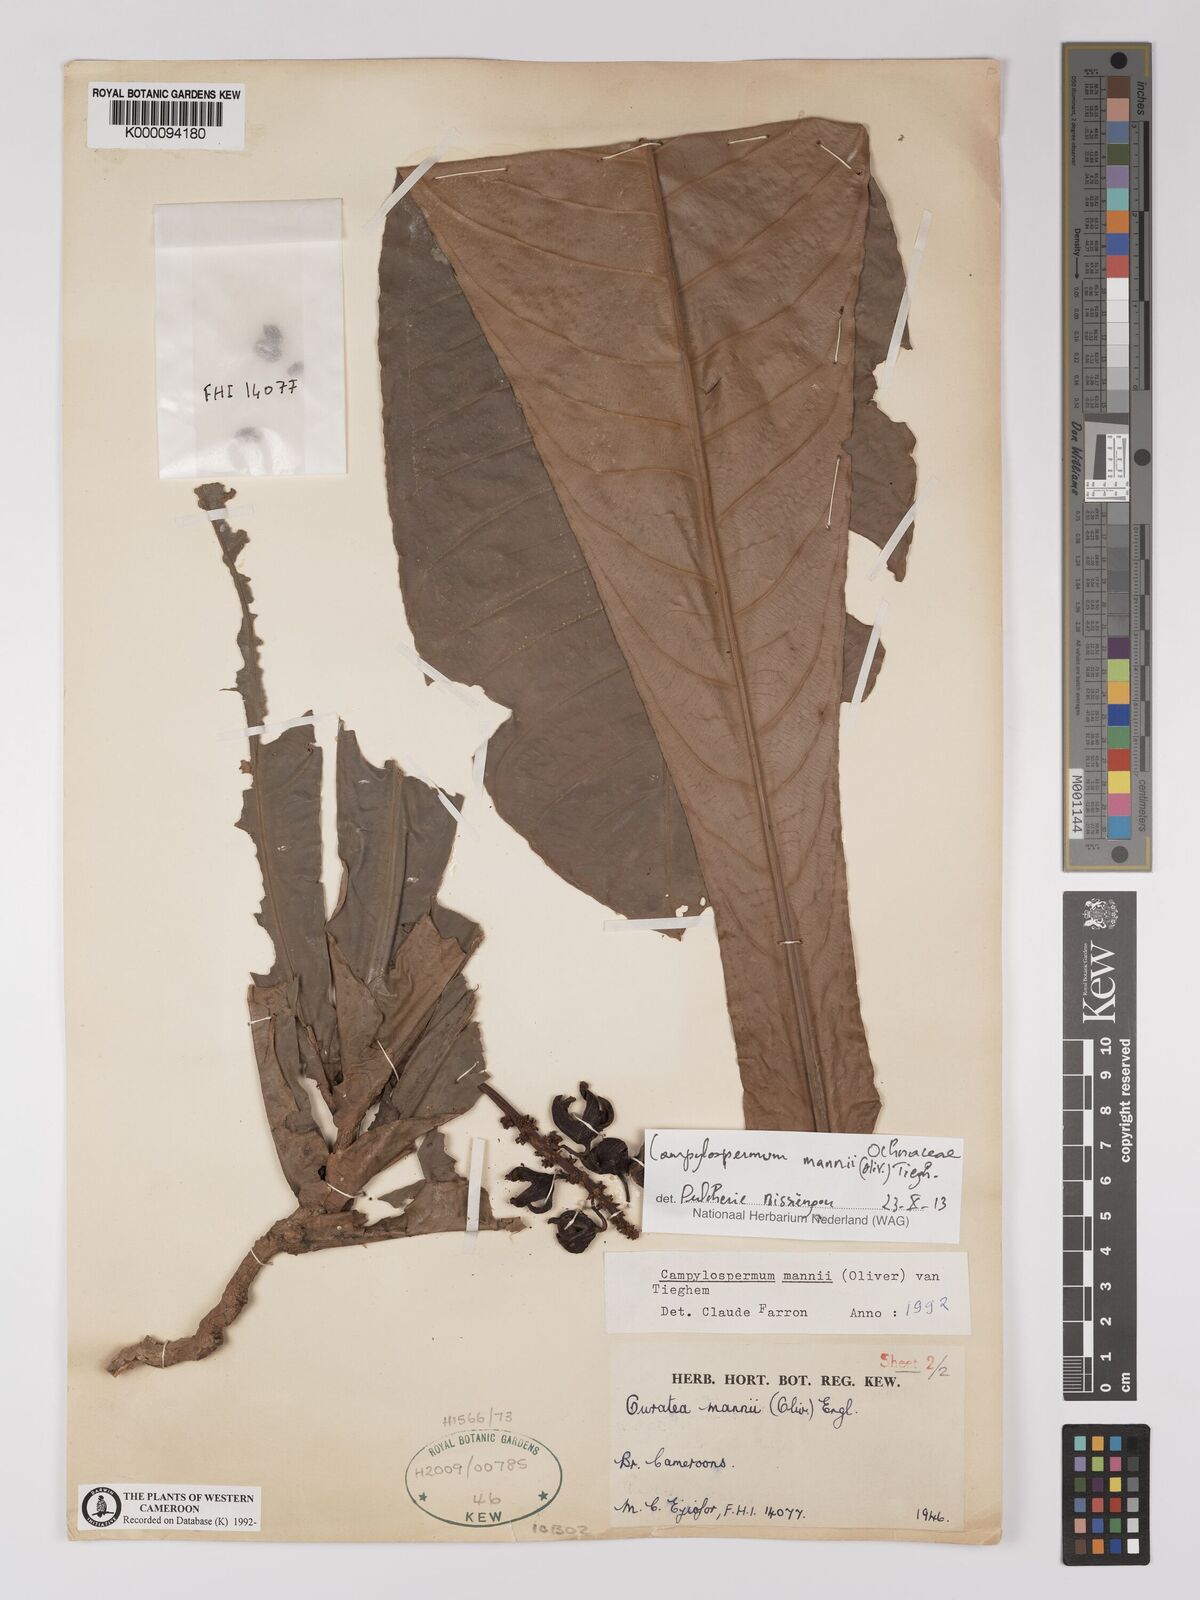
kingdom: Plantae
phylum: Tracheophyta
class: Magnoliopsida
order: Malpighiales
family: Ochnaceae
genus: Campylospermum
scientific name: Campylospermum mannii
